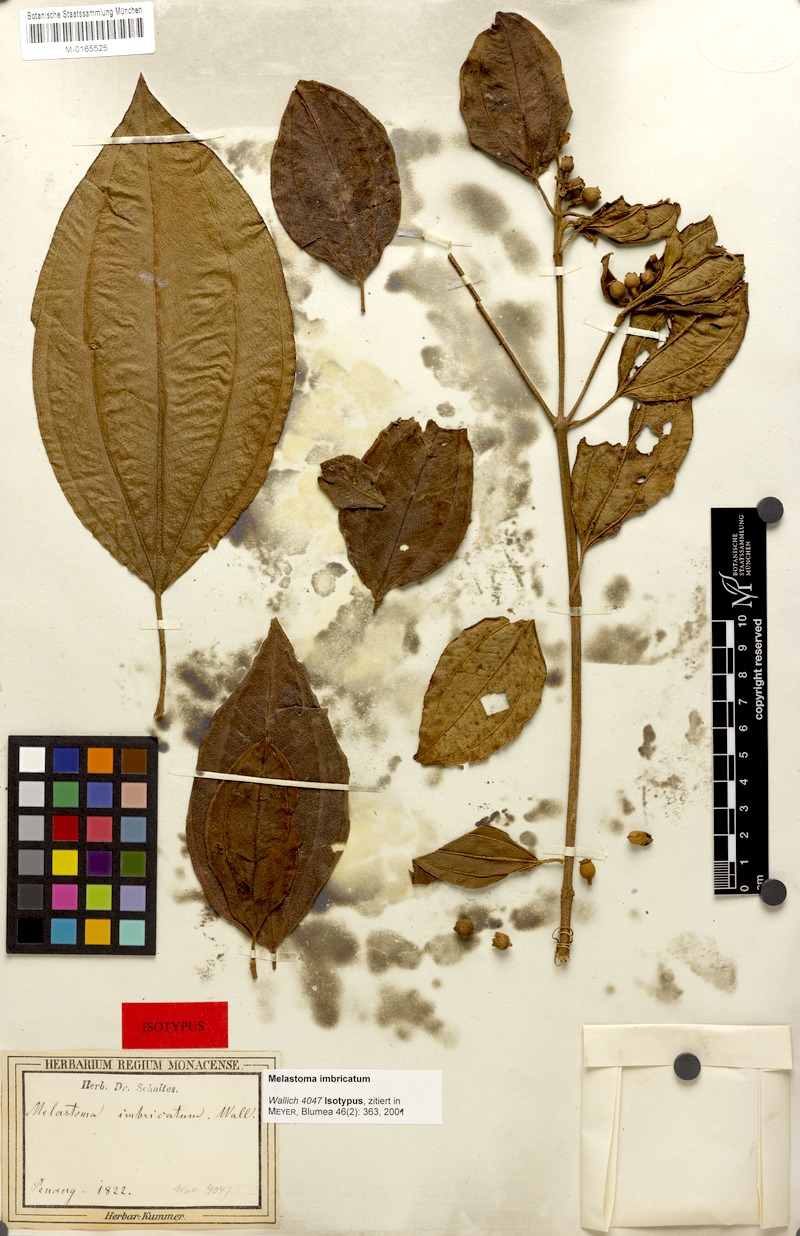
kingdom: Plantae
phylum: Tracheophyta
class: Magnoliopsida
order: Myrtales
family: Melastomataceae
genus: Melastoma
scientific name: Melastoma imbricatum
